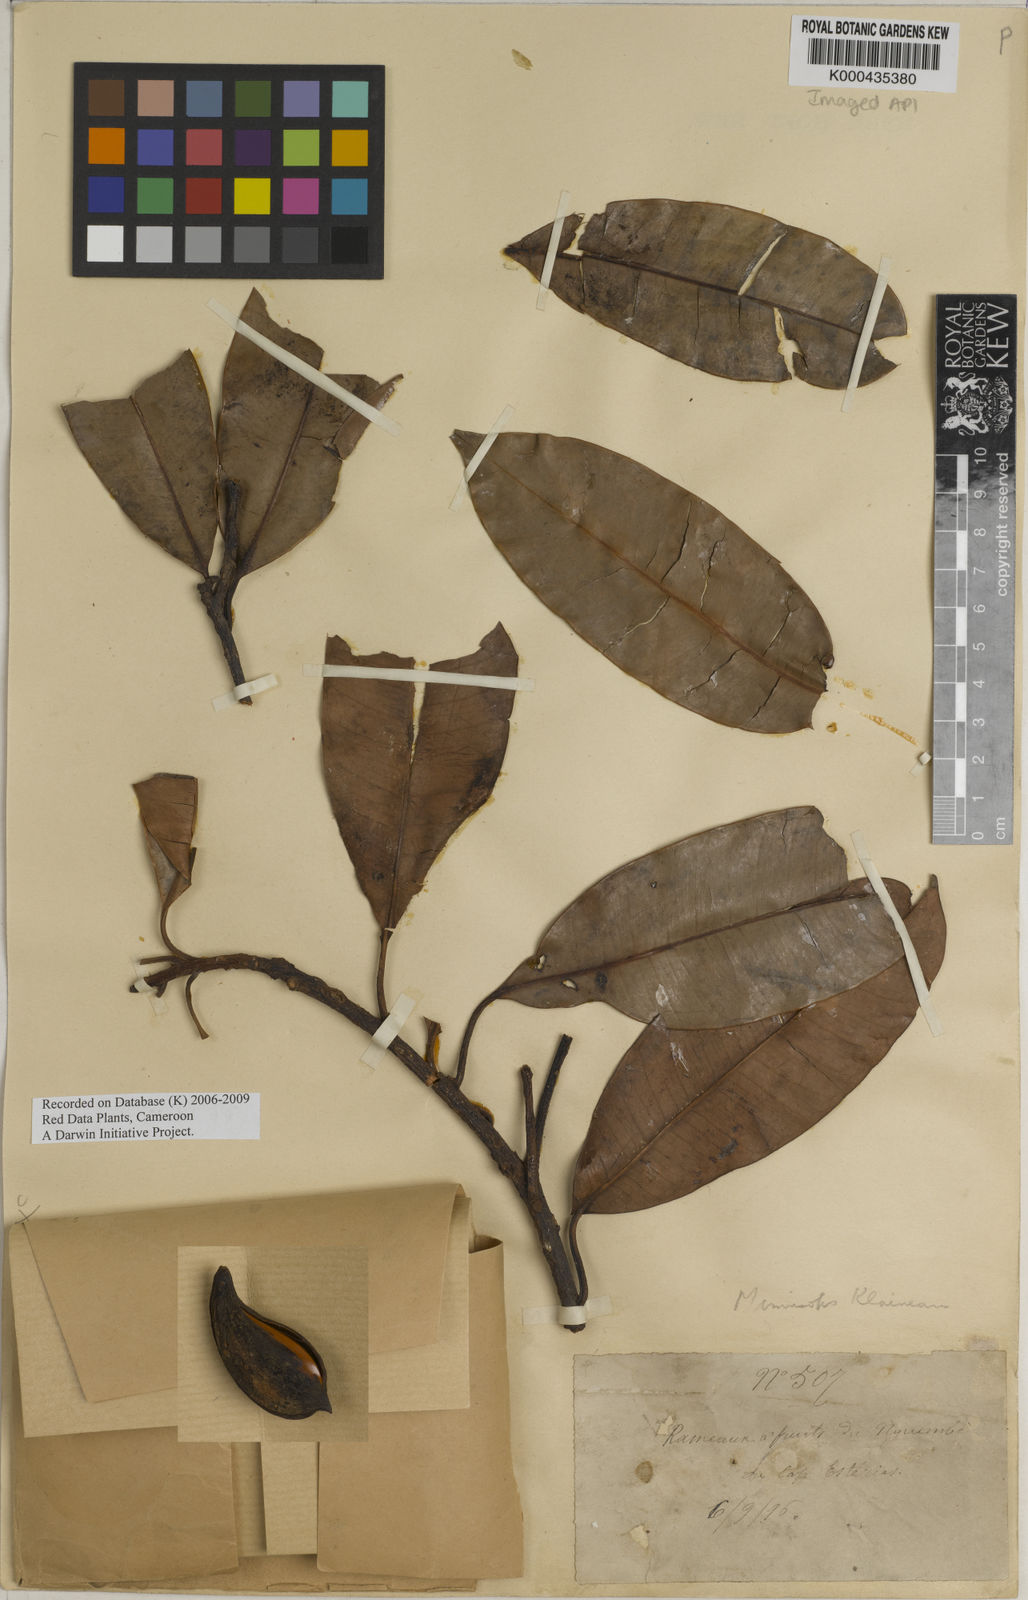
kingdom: Plantae
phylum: Tracheophyta
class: Magnoliopsida
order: Ericales
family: Sapotaceae
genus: Lecomtedoxa
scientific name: Lecomtedoxa klaineana
